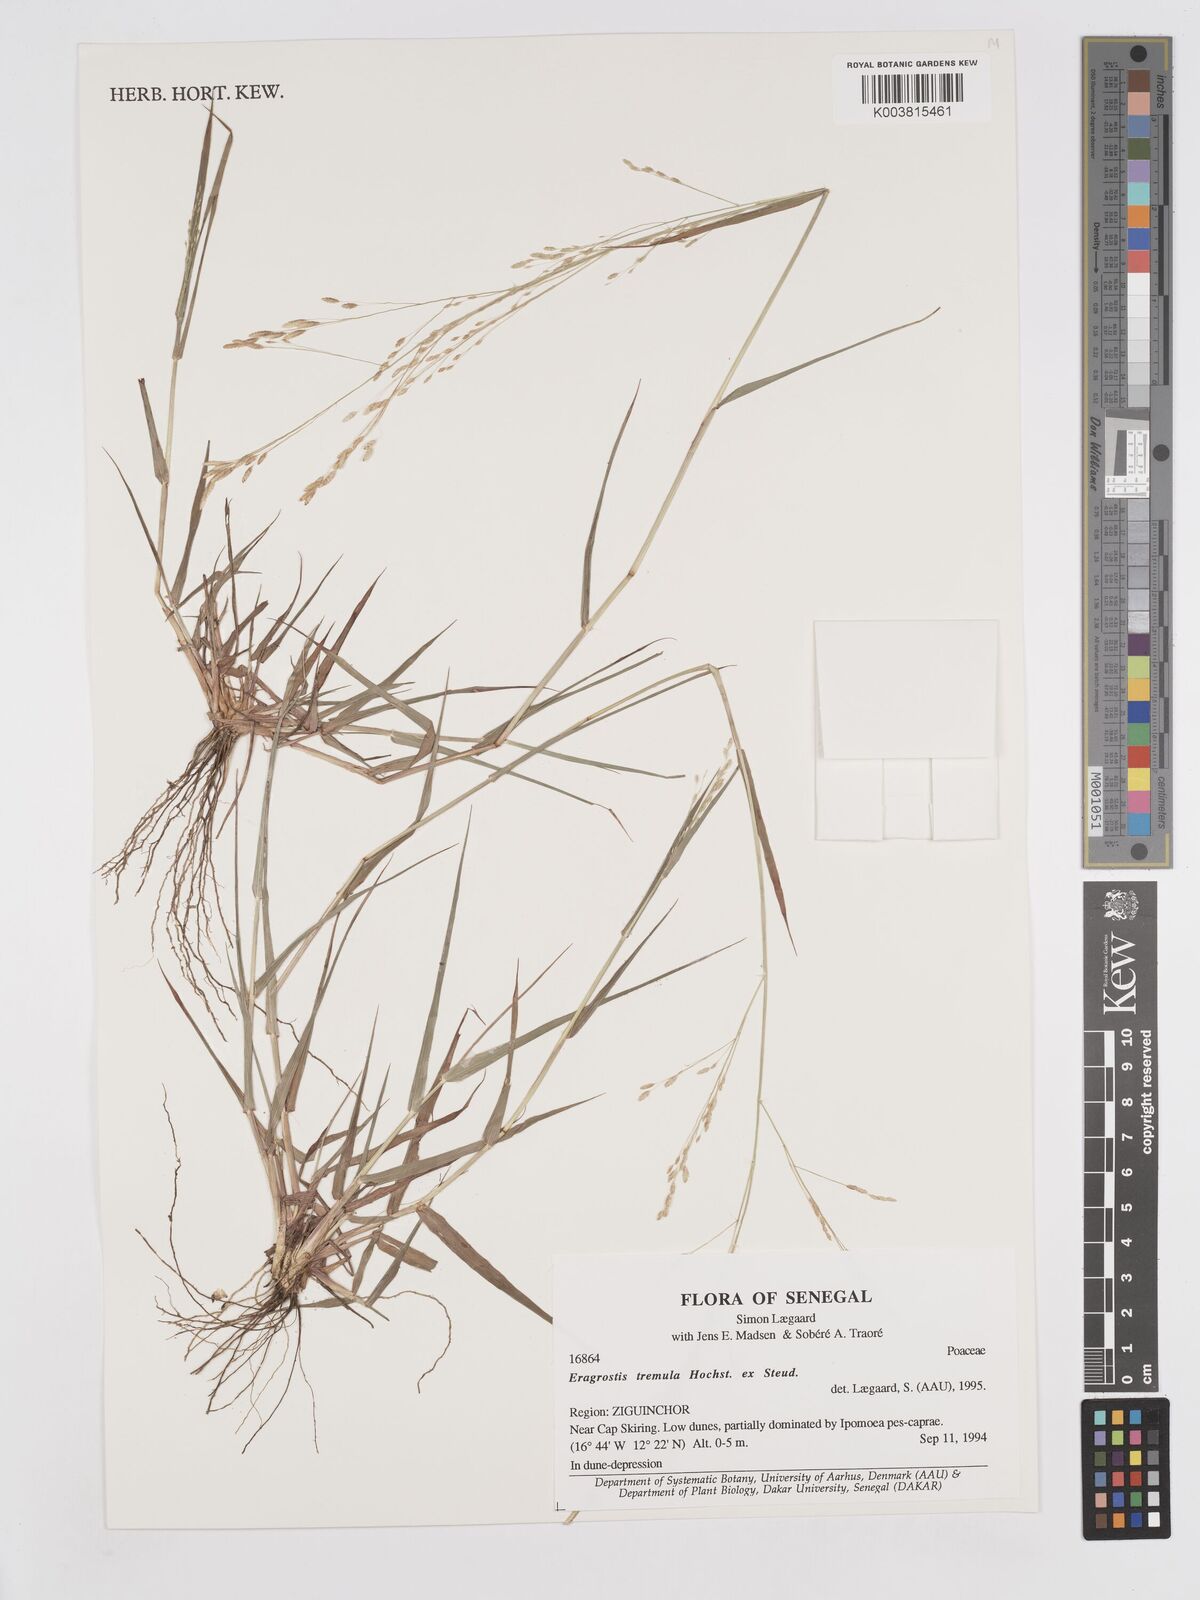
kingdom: Plantae
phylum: Tracheophyta
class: Liliopsida
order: Poales
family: Poaceae
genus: Eragrostis
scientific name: Eragrostis tremula
